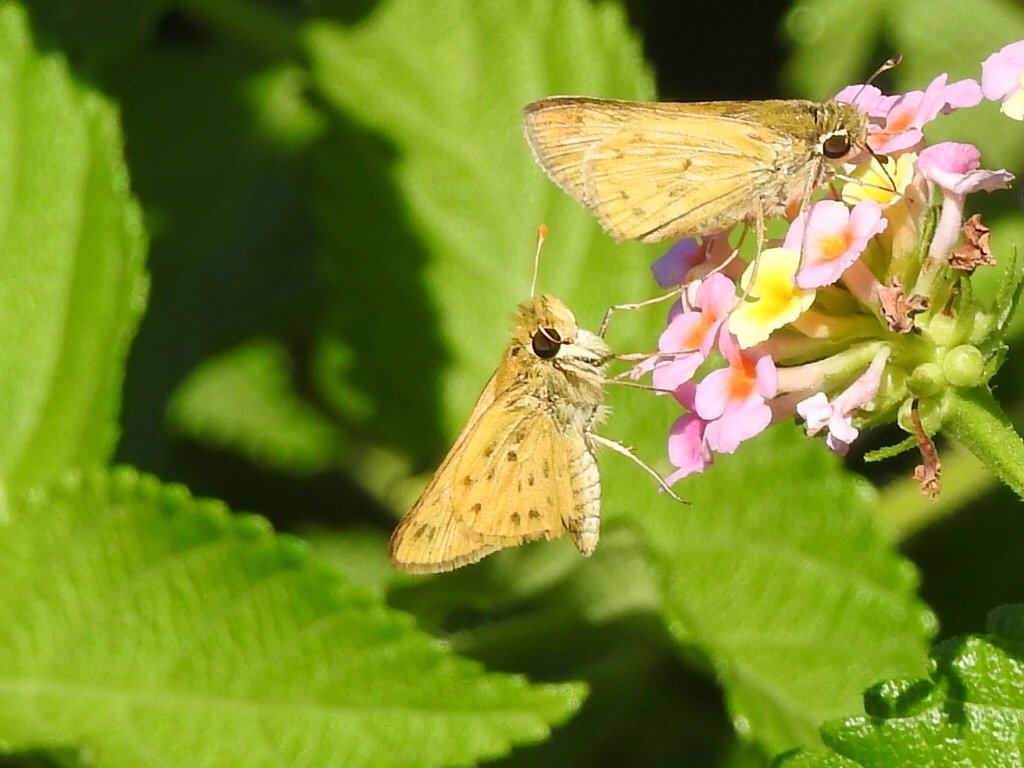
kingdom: Animalia
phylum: Arthropoda
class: Insecta
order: Lepidoptera
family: Hesperiidae
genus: Hylephila
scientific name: Hylephila phyleus
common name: Fiery Skipper
